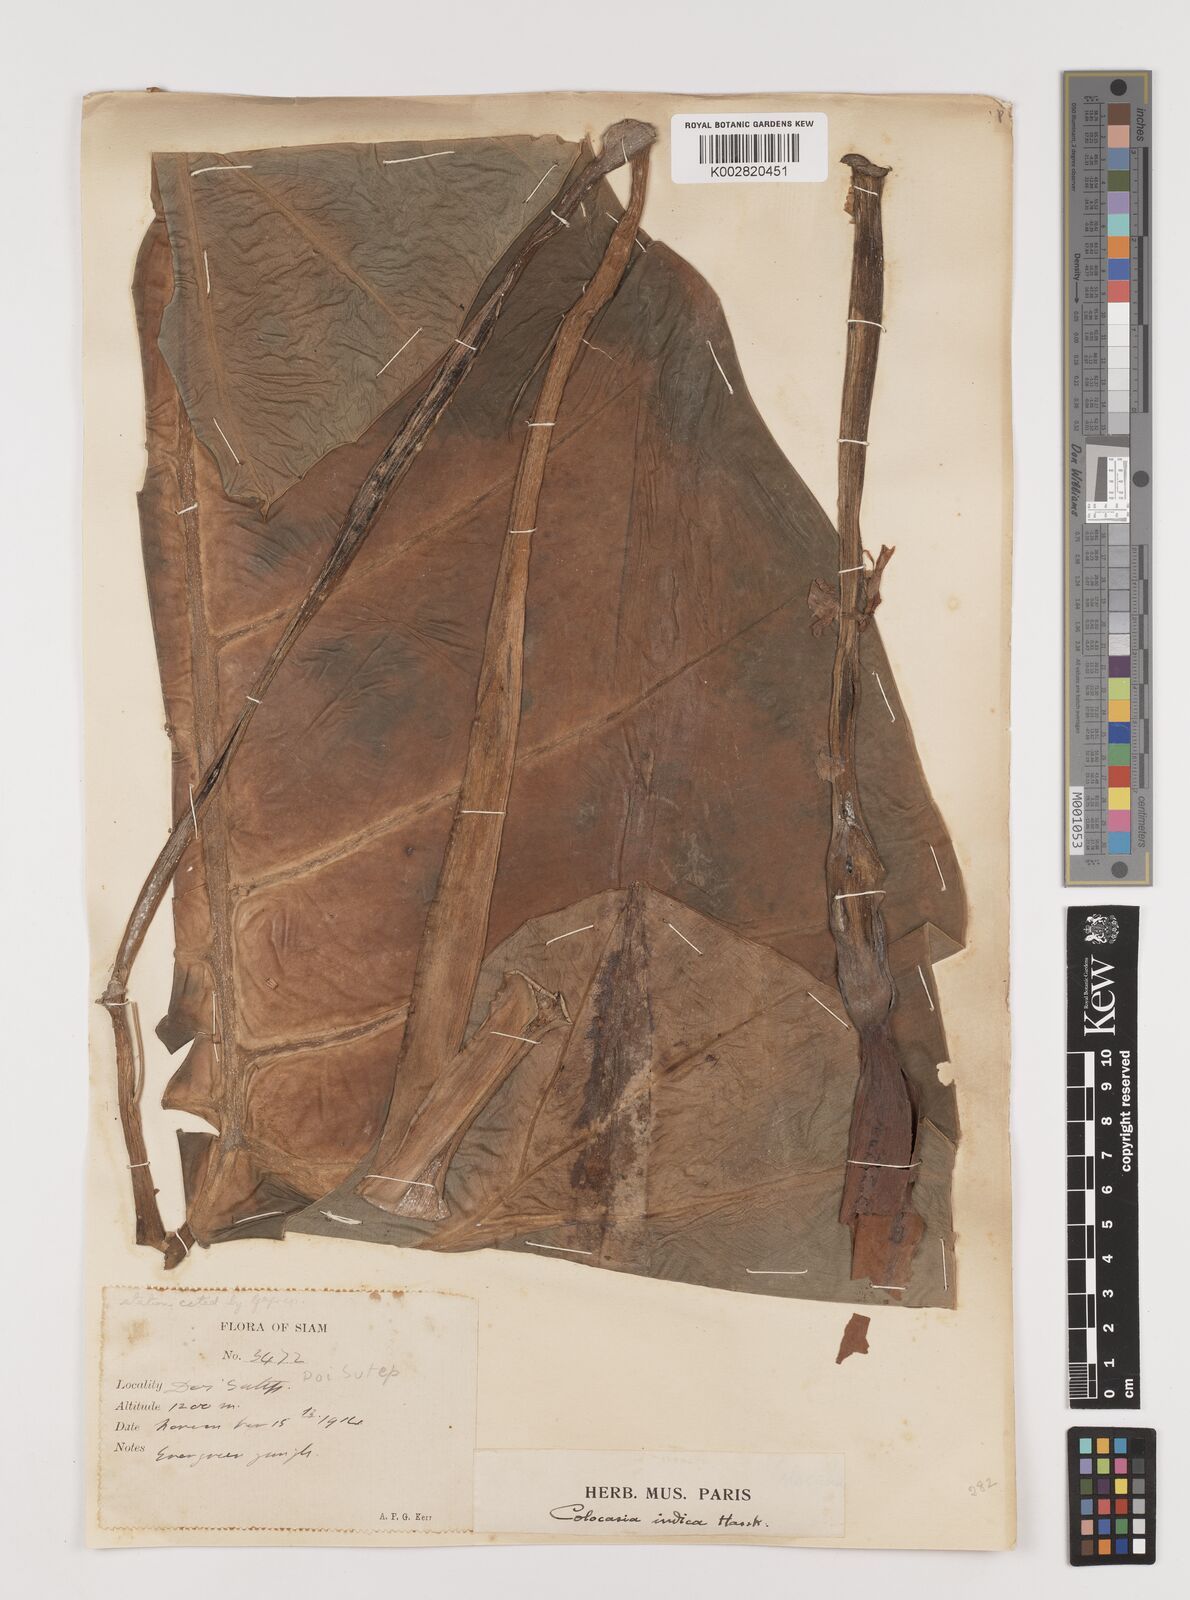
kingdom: Plantae
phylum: Tracheophyta
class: Liliopsida
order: Alismatales
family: Araceae
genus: Leucocasia
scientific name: Leucocasia gigantea
